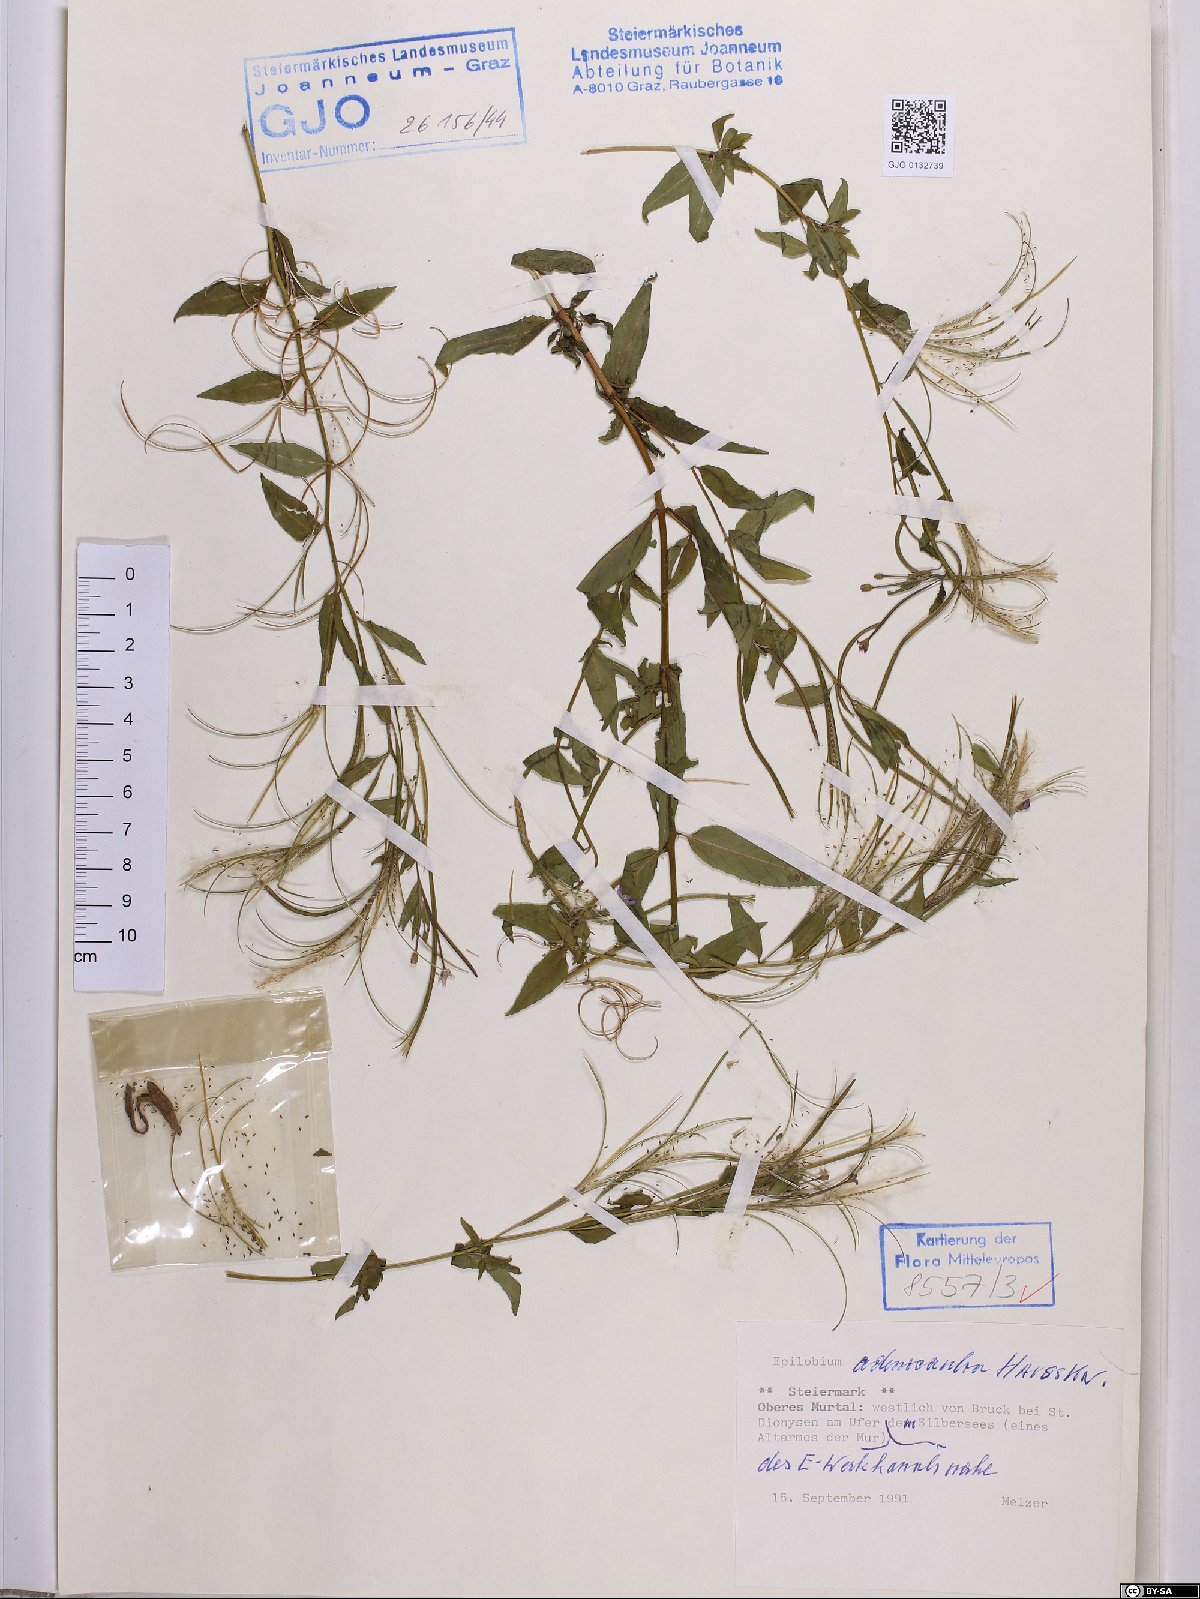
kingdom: Plantae
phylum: Tracheophyta
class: Magnoliopsida
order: Myrtales
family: Onagraceae
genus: Epilobium
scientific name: Epilobium ciliatum
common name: American willowherb
